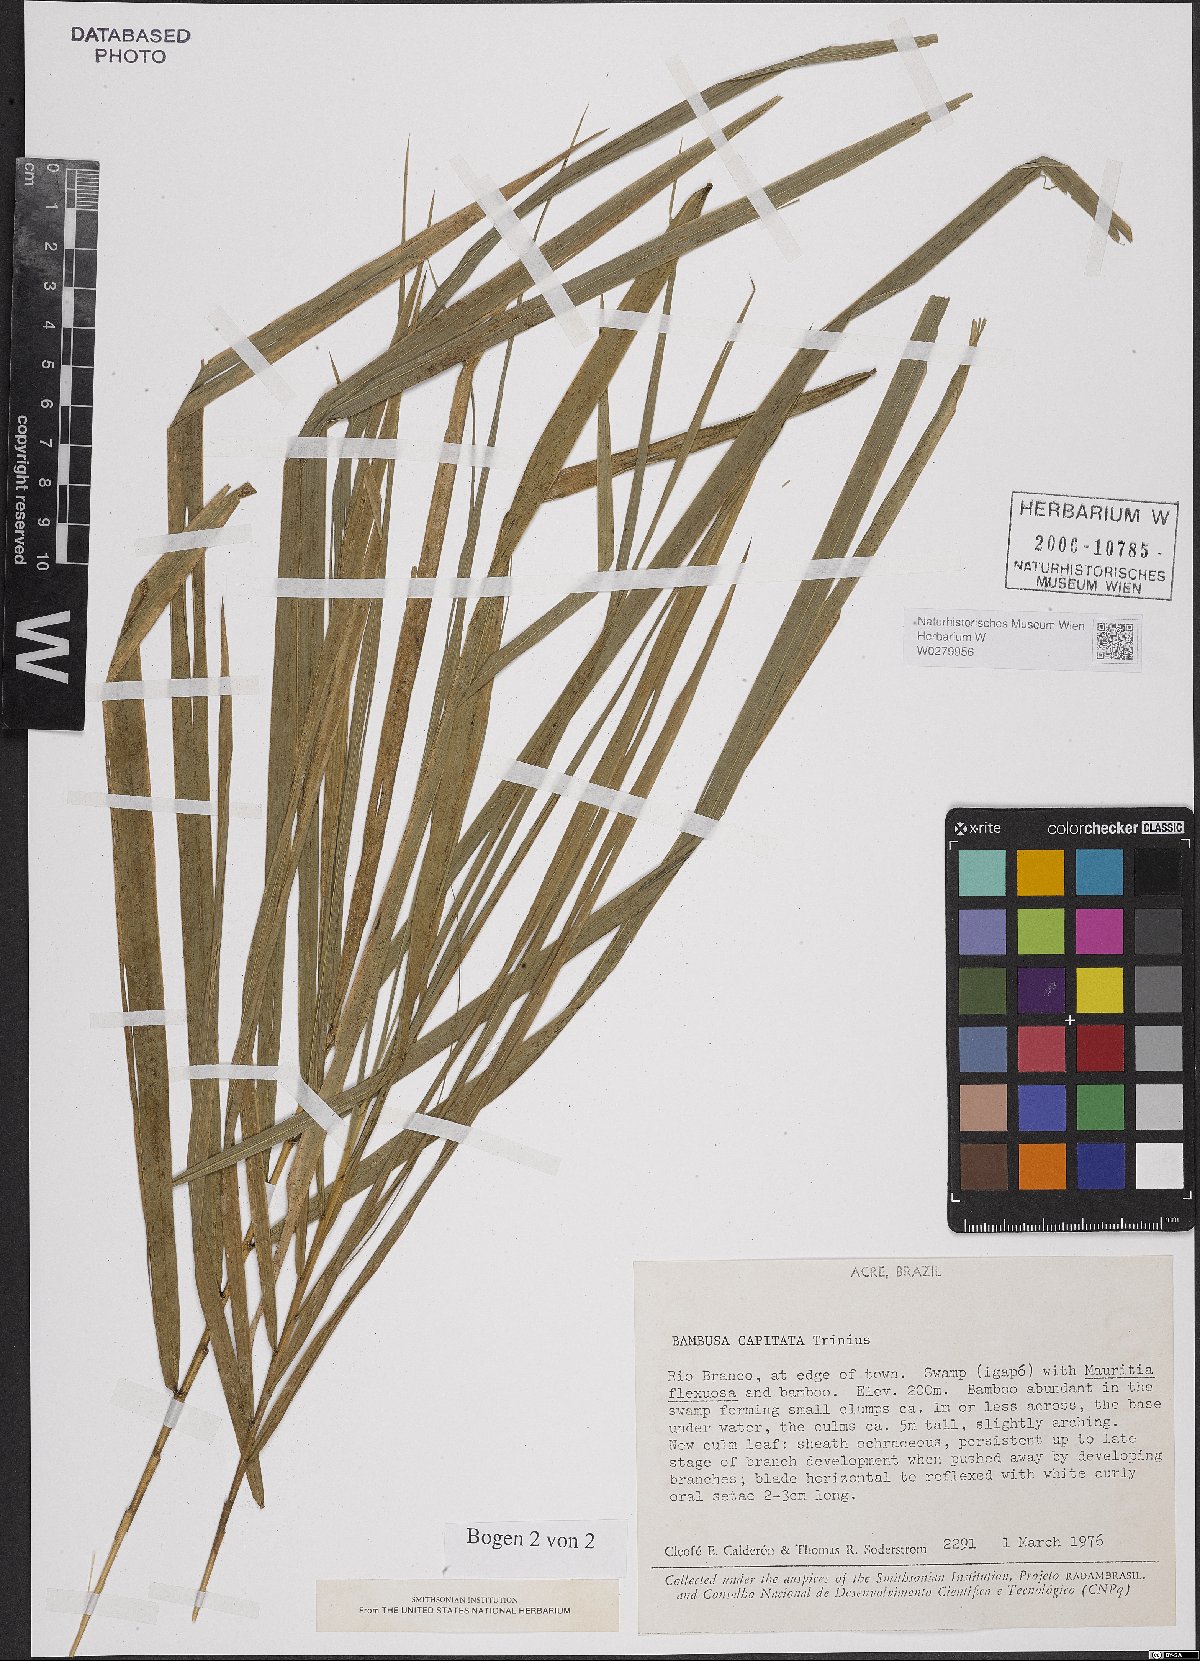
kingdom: Plantae
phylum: Tracheophyta
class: Liliopsida
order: Poales
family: Poaceae
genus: Eremocaulon
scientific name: Eremocaulon capitatum
